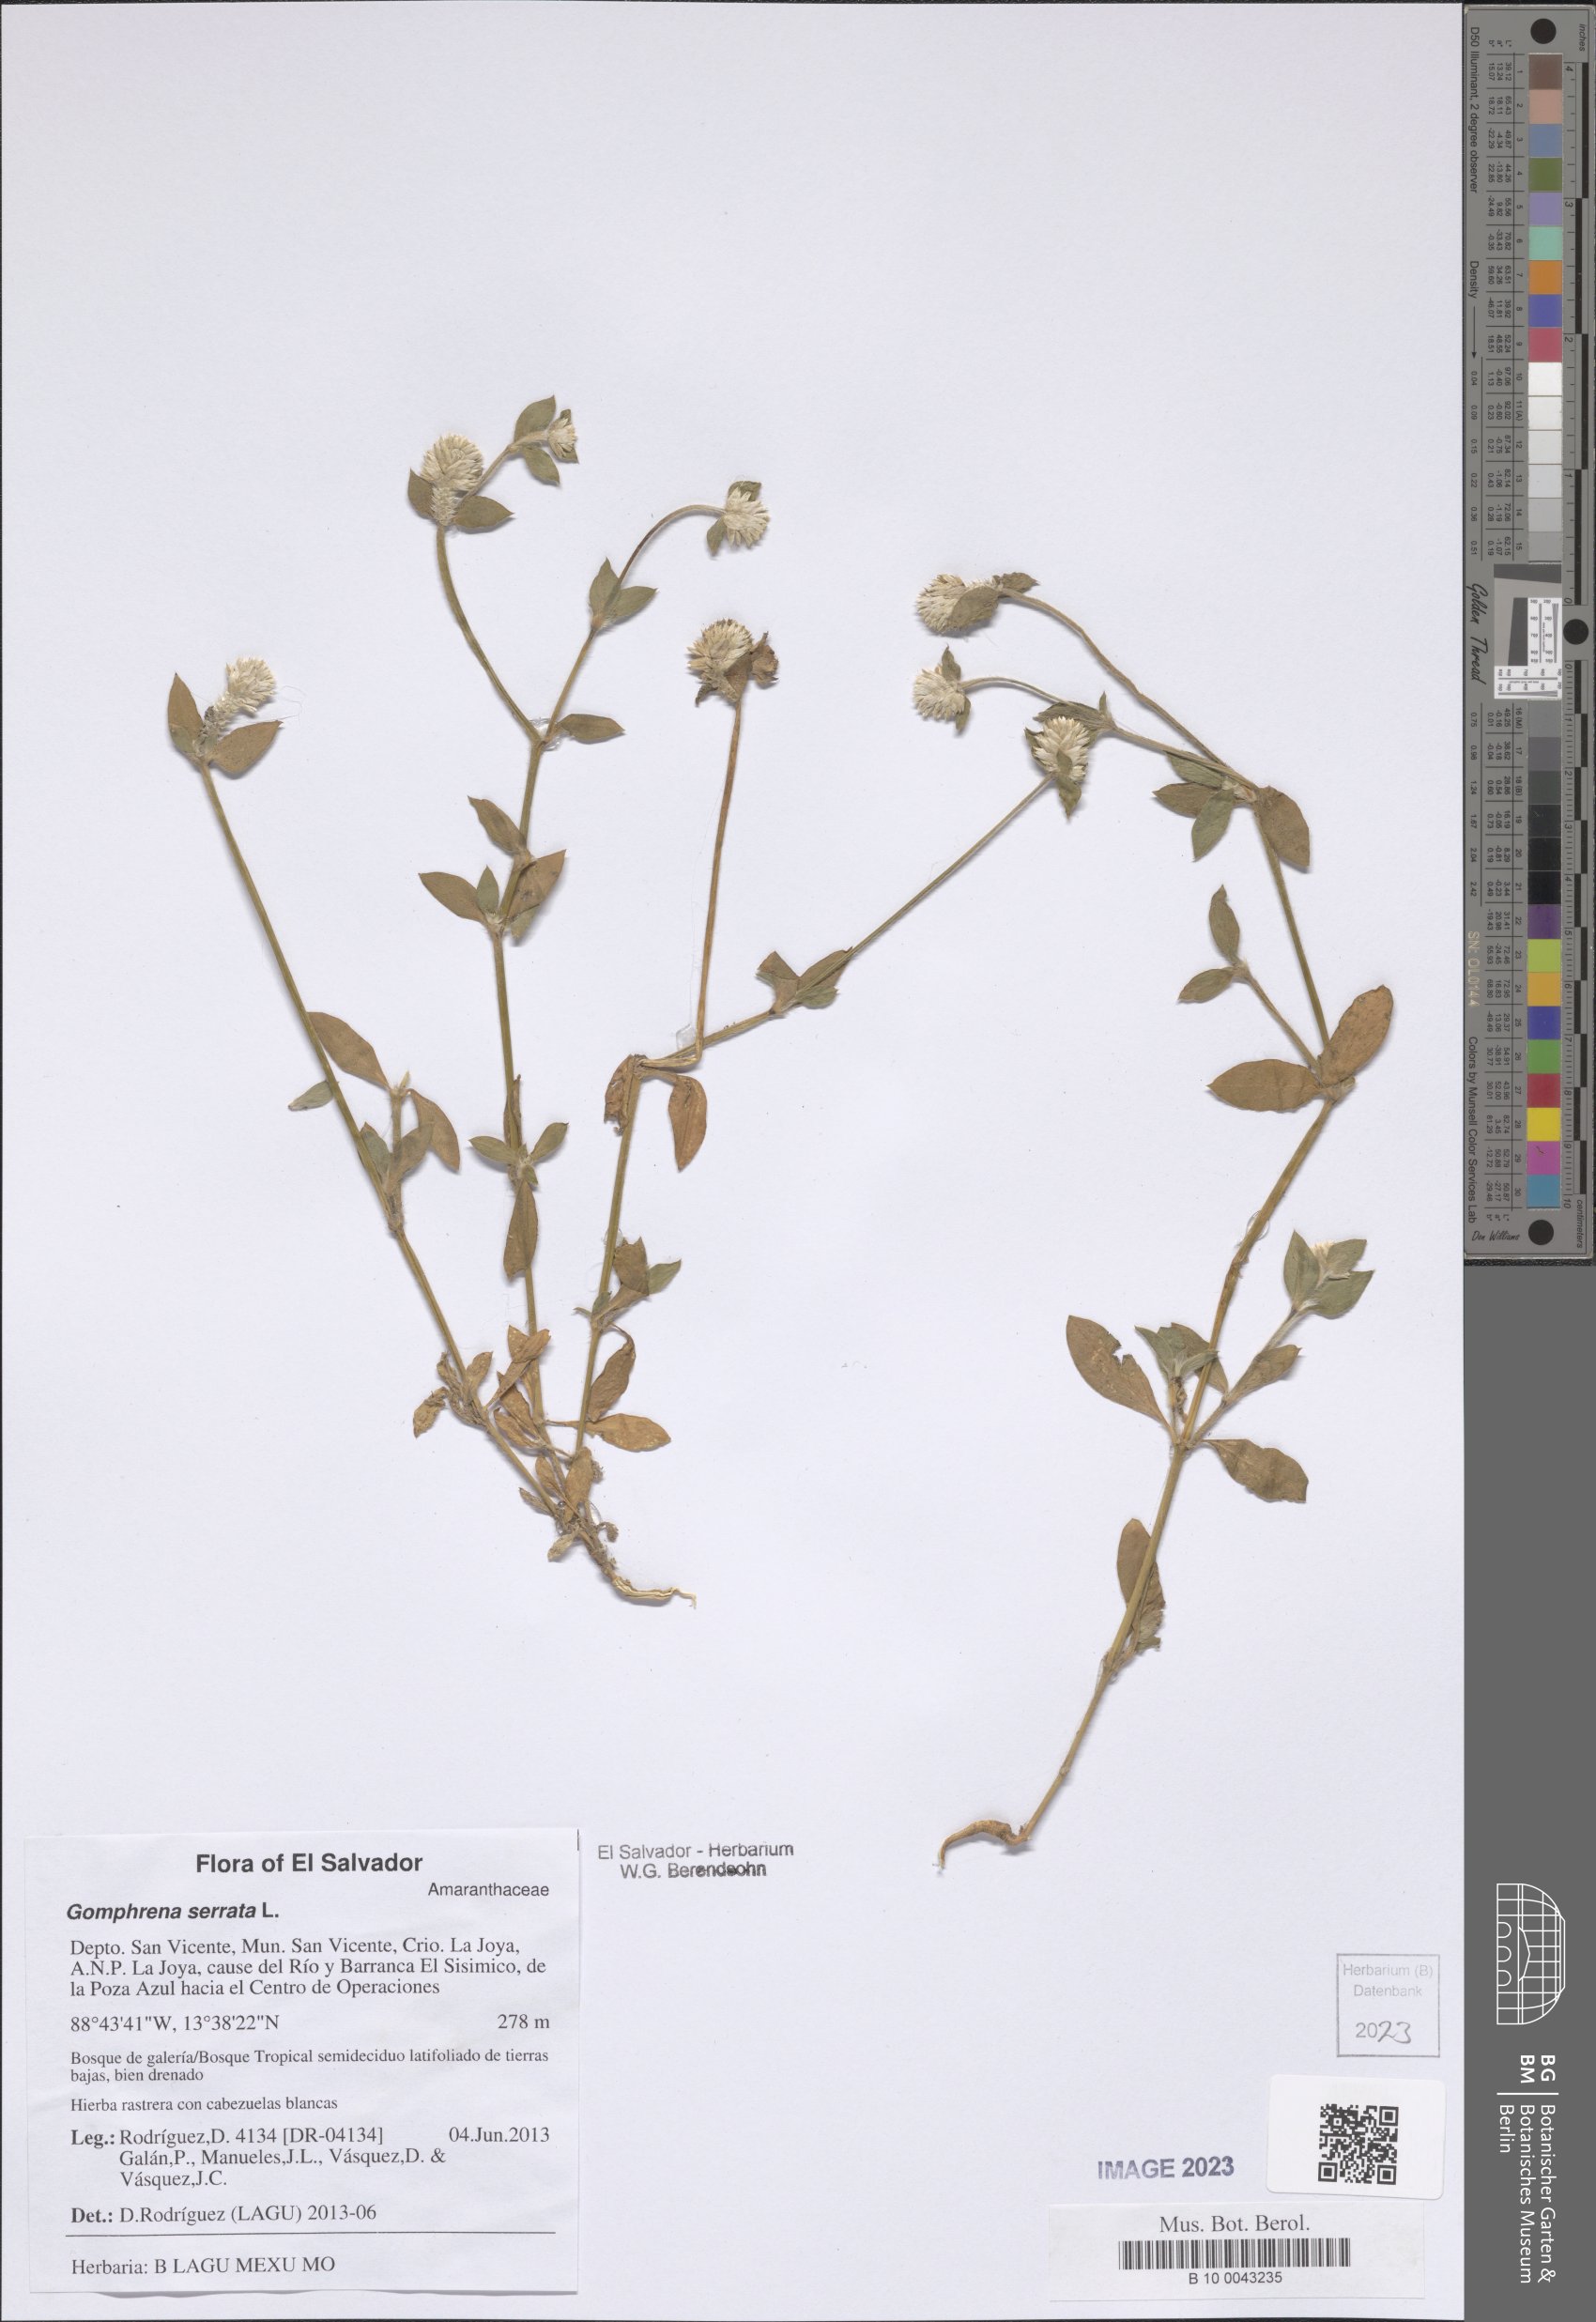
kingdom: Plantae
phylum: Tracheophyta
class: Magnoliopsida
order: Caryophyllales
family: Amaranthaceae
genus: Gomphrena
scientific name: Gomphrena serrata
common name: Arrasa con todo
